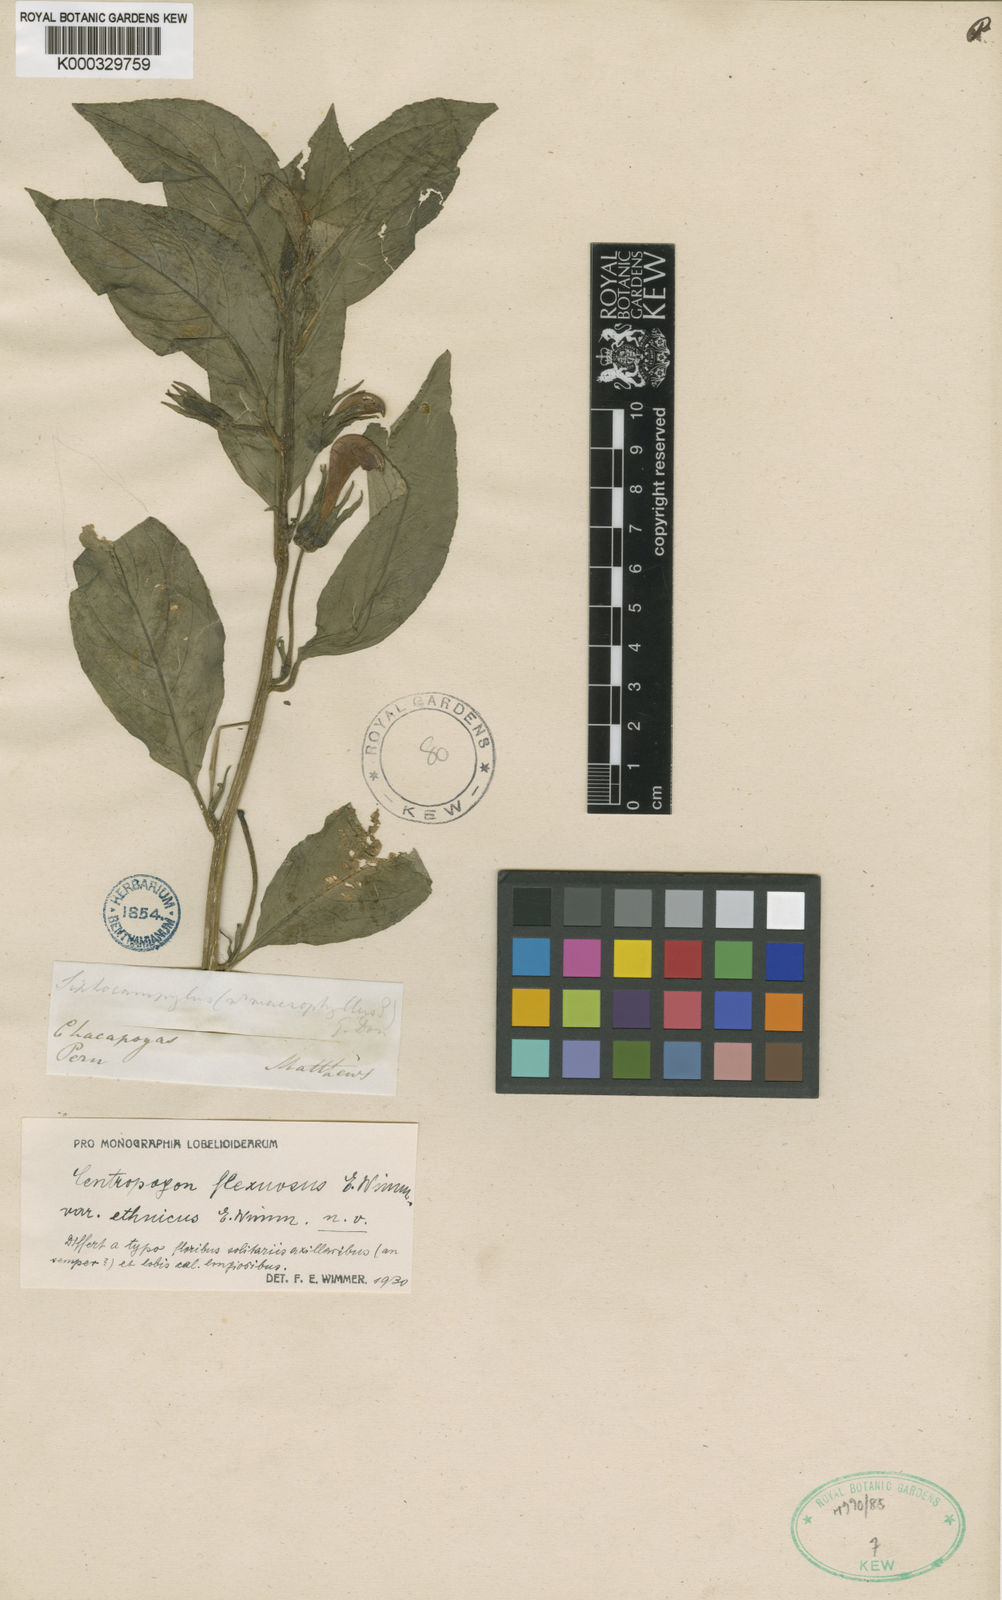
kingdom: Plantae
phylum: Tracheophyta
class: Magnoliopsida
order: Asterales
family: Campanulaceae
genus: Centropogon
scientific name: Centropogon longipetiolatus
